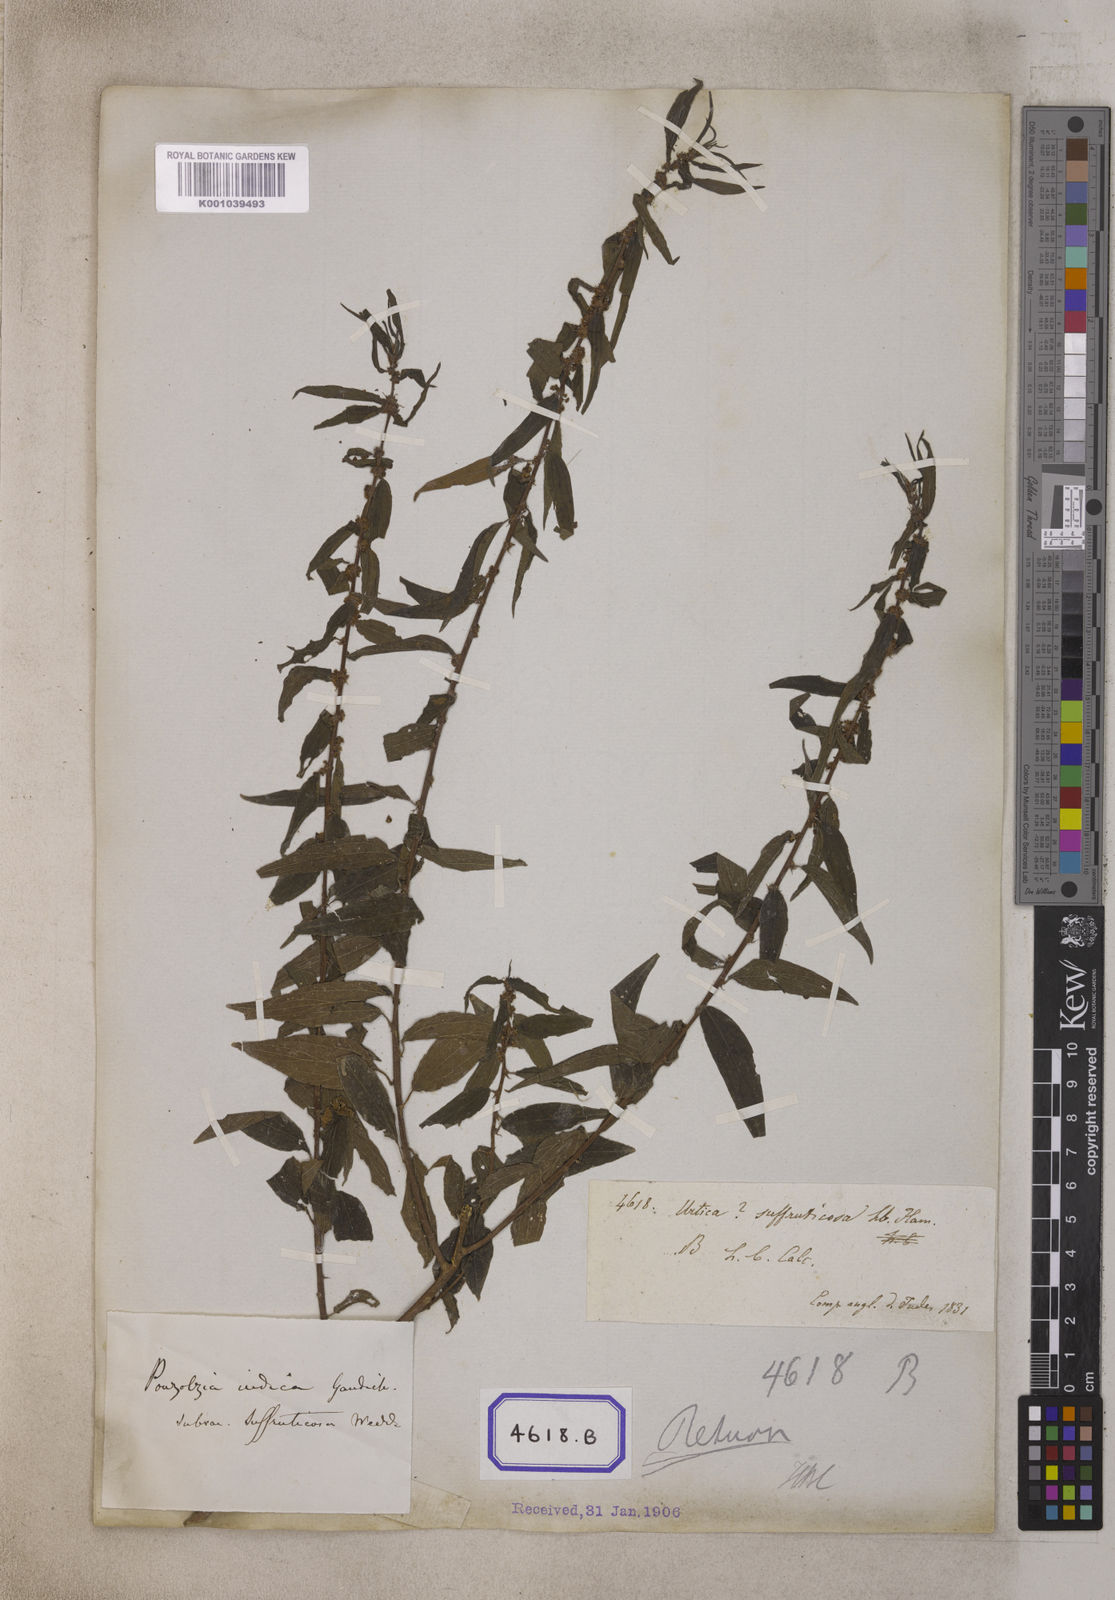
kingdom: Plantae
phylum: Tracheophyta
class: Magnoliopsida
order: Rosales
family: Urticaceae
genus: Pouzolzia
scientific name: Pouzolzia zeylanica
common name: Graceful pouzolzsbush
